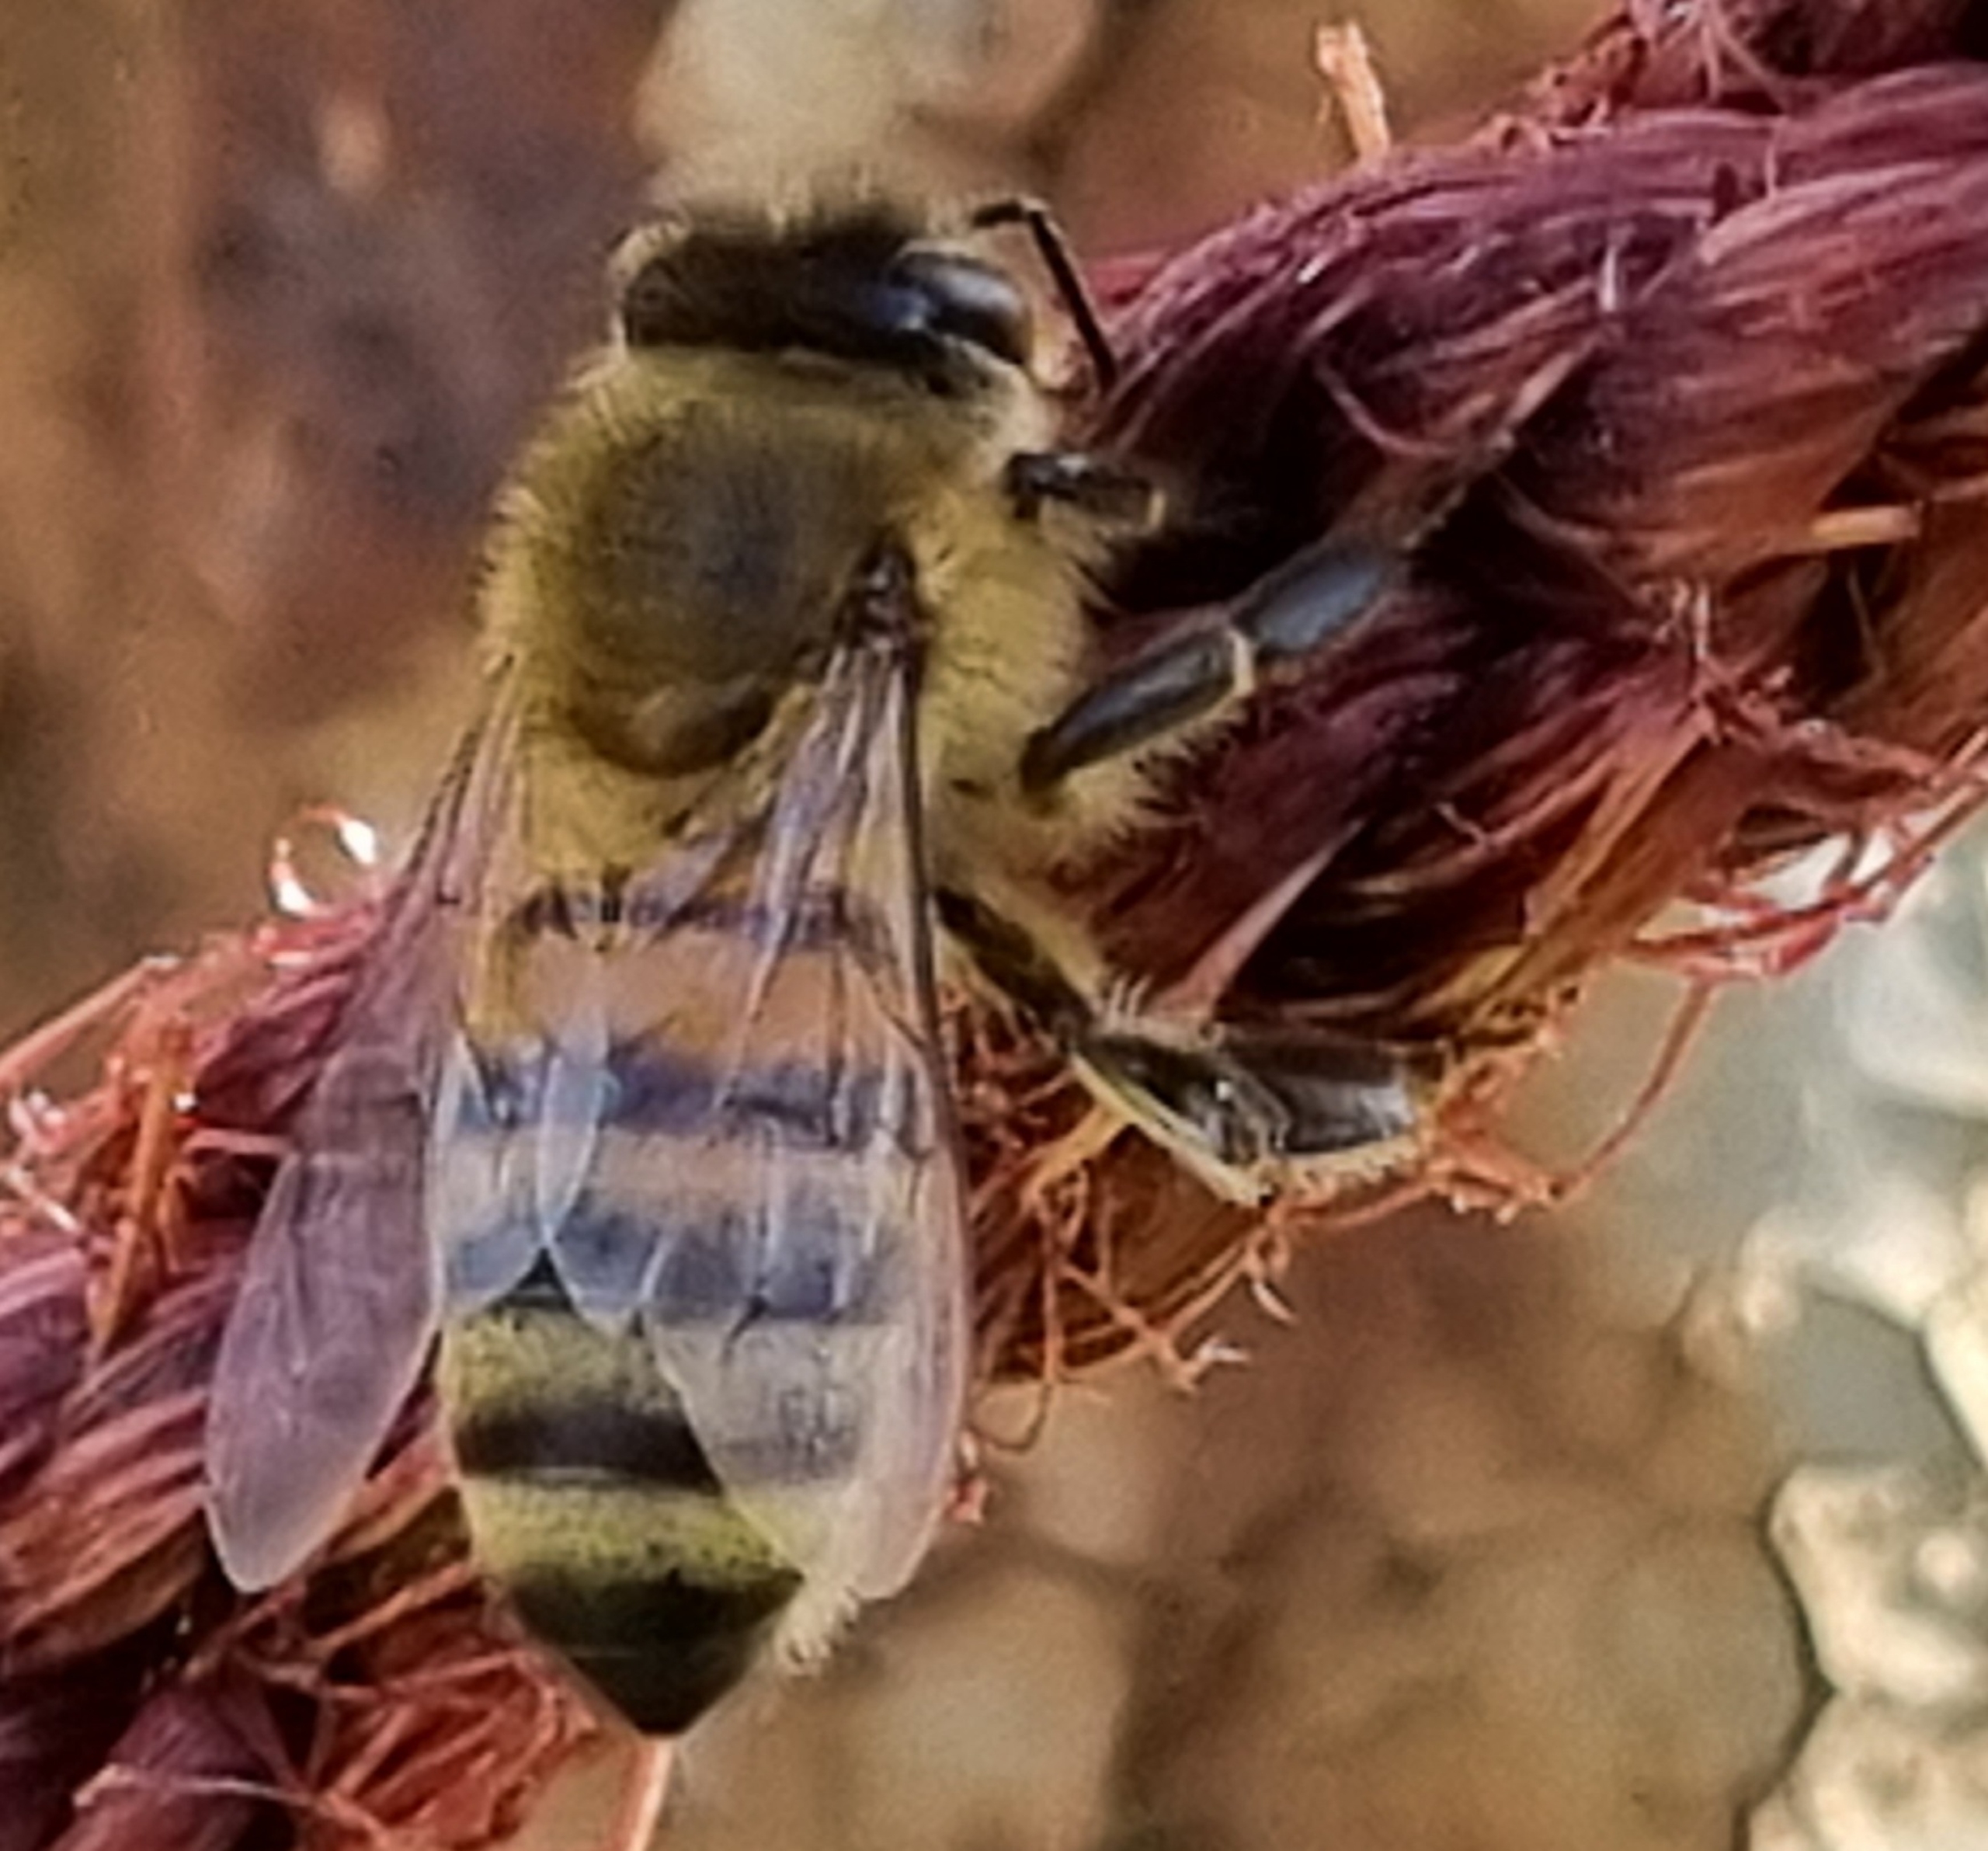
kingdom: Animalia
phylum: Arthropoda
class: Insecta
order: Hymenoptera
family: Apidae
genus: Apis
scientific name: Apis mellifera
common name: Honningbi
